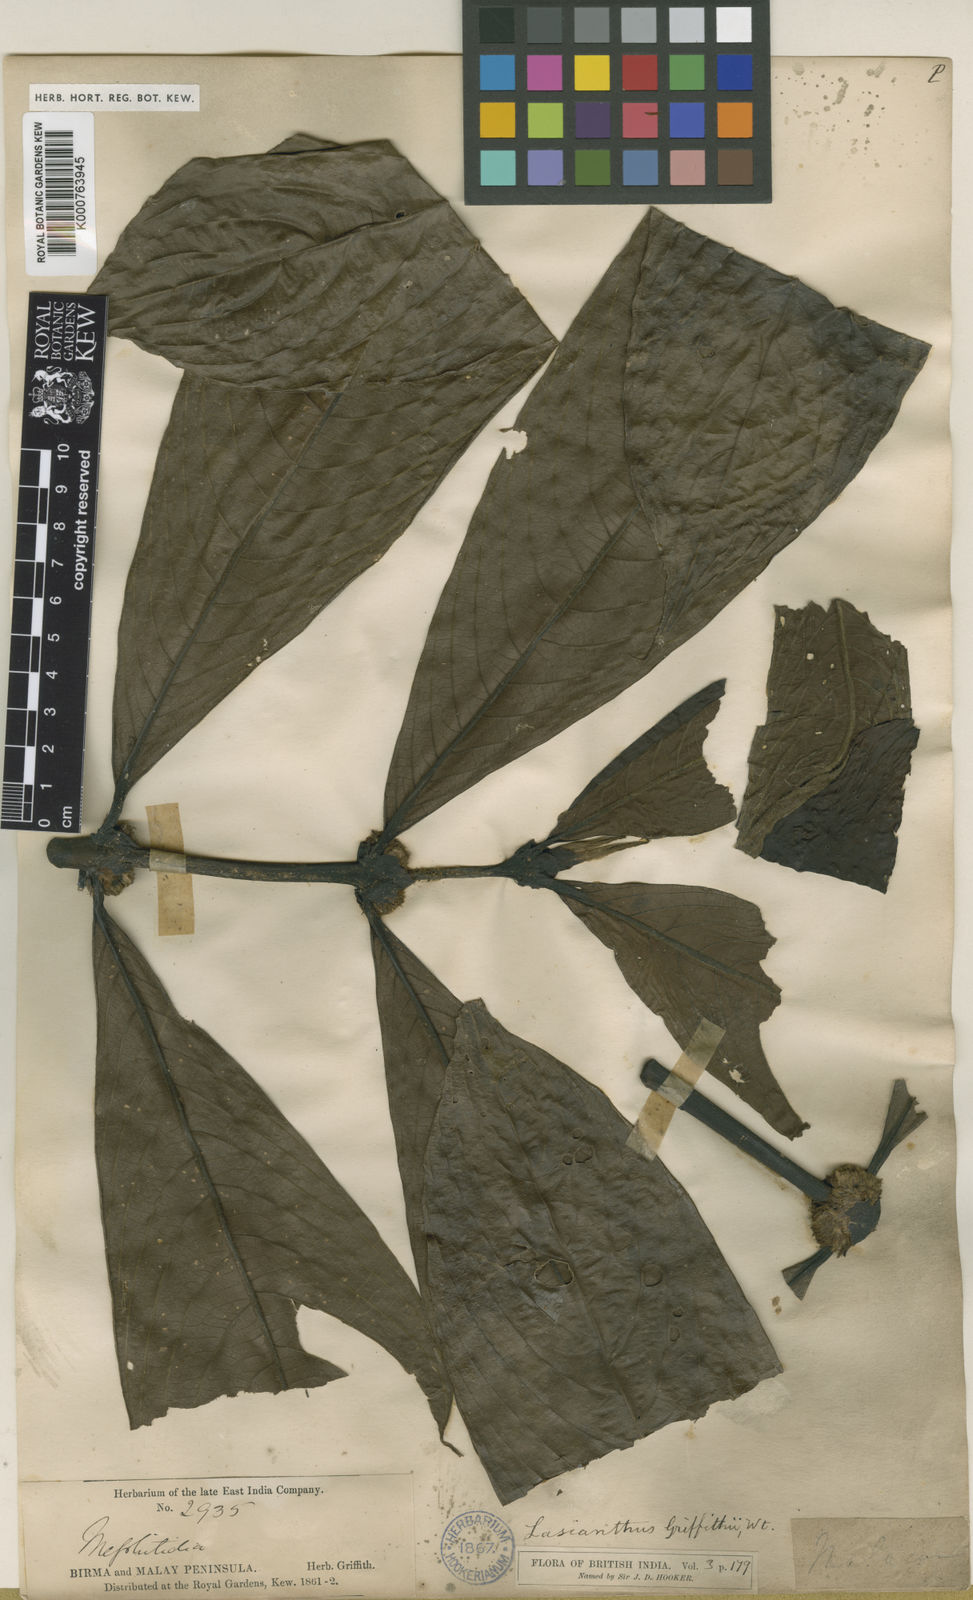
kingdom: Plantae
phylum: Tracheophyta
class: Magnoliopsida
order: Gentianales
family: Rubiaceae
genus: Lasianthus
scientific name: Lasianthus griffithii
